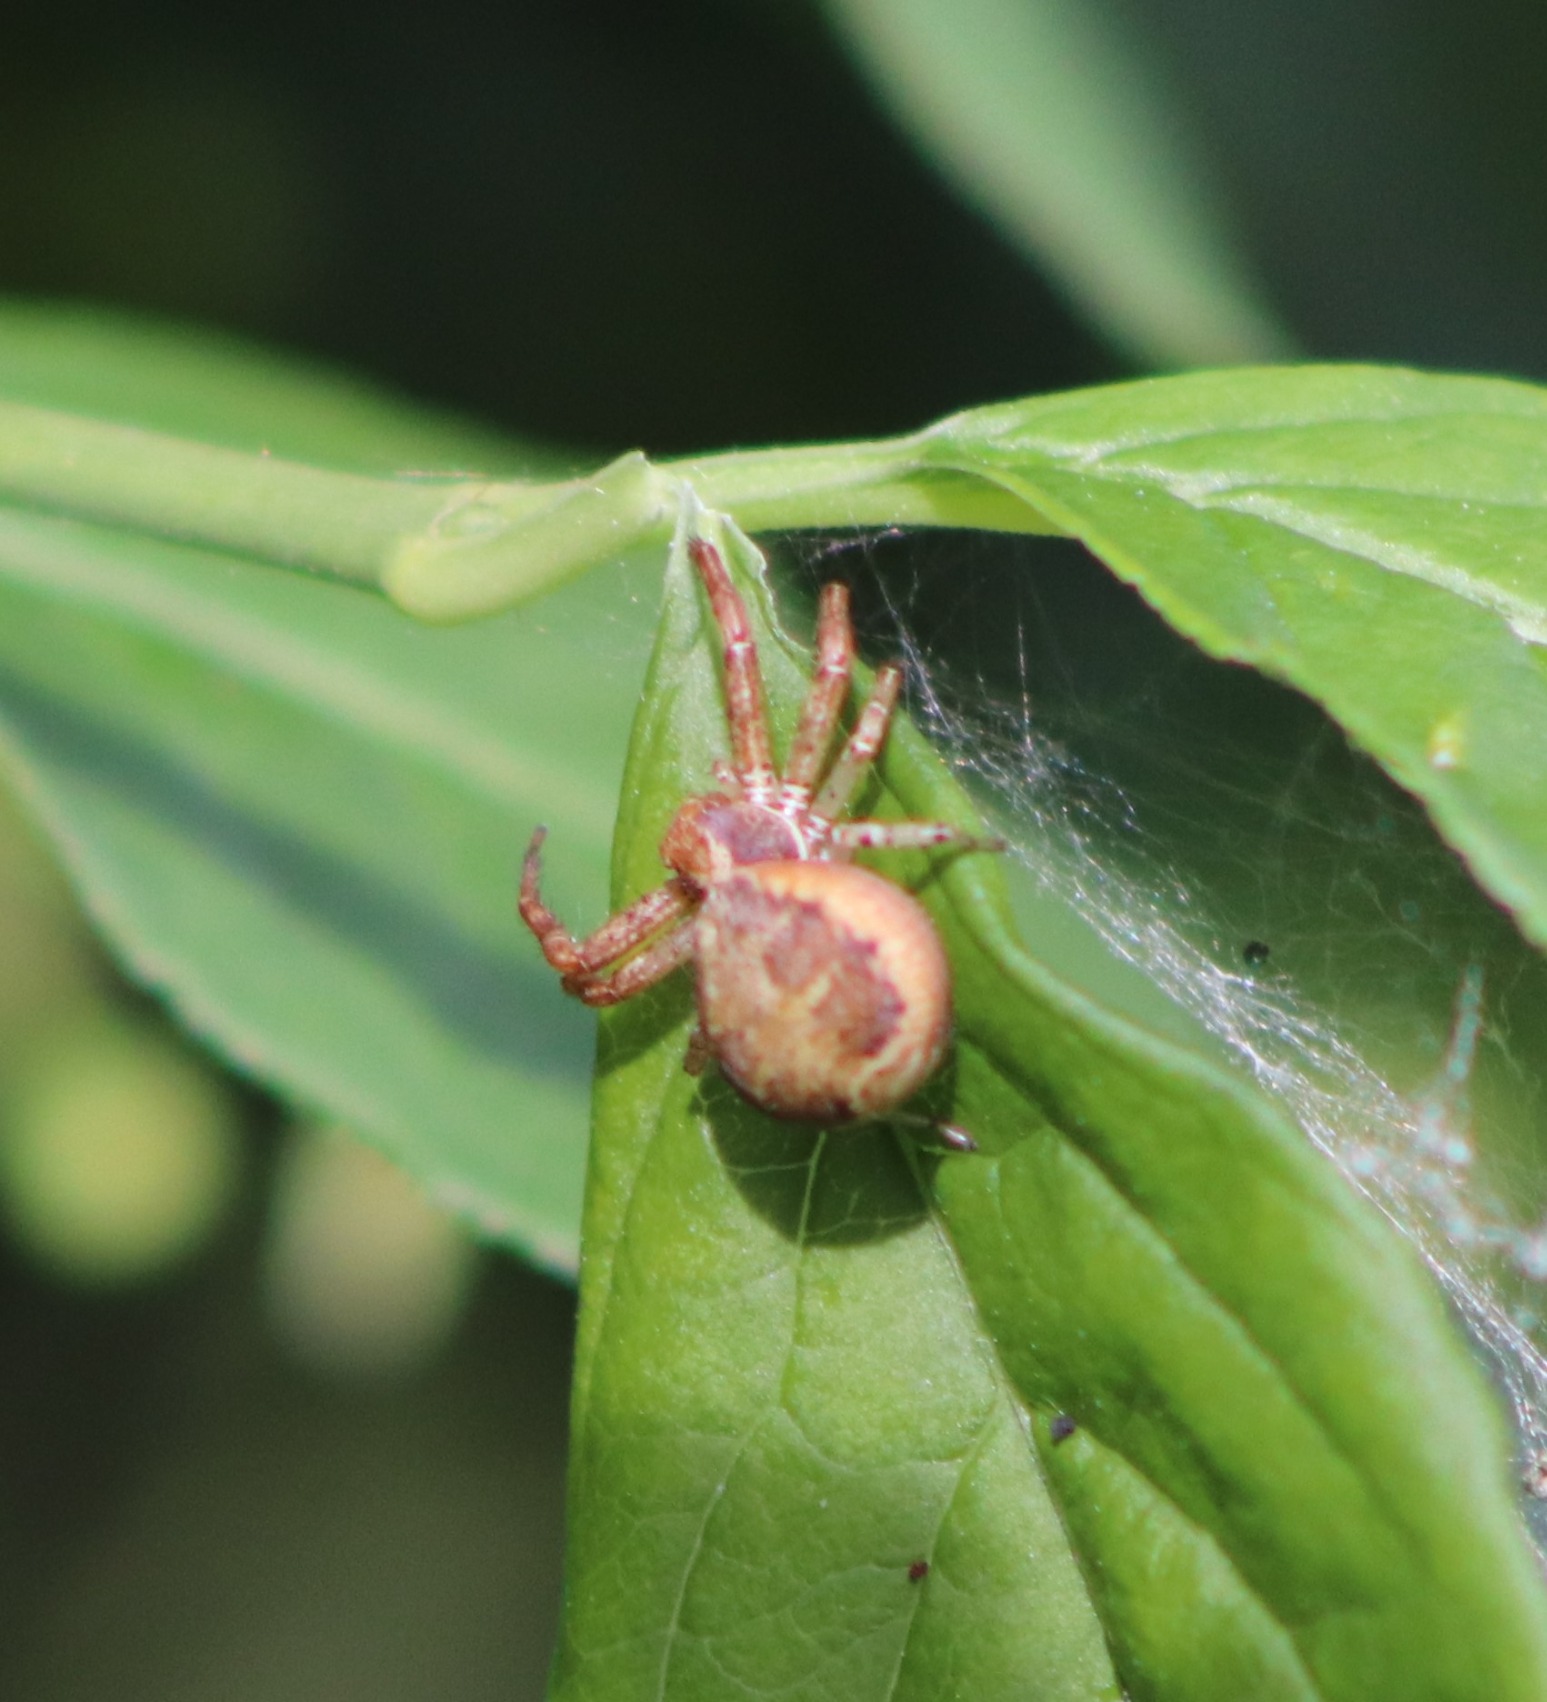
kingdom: Animalia
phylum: Arthropoda
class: Arachnida
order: Araneae
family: Thomisidae
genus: Xysticus
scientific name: Xysticus lanio
